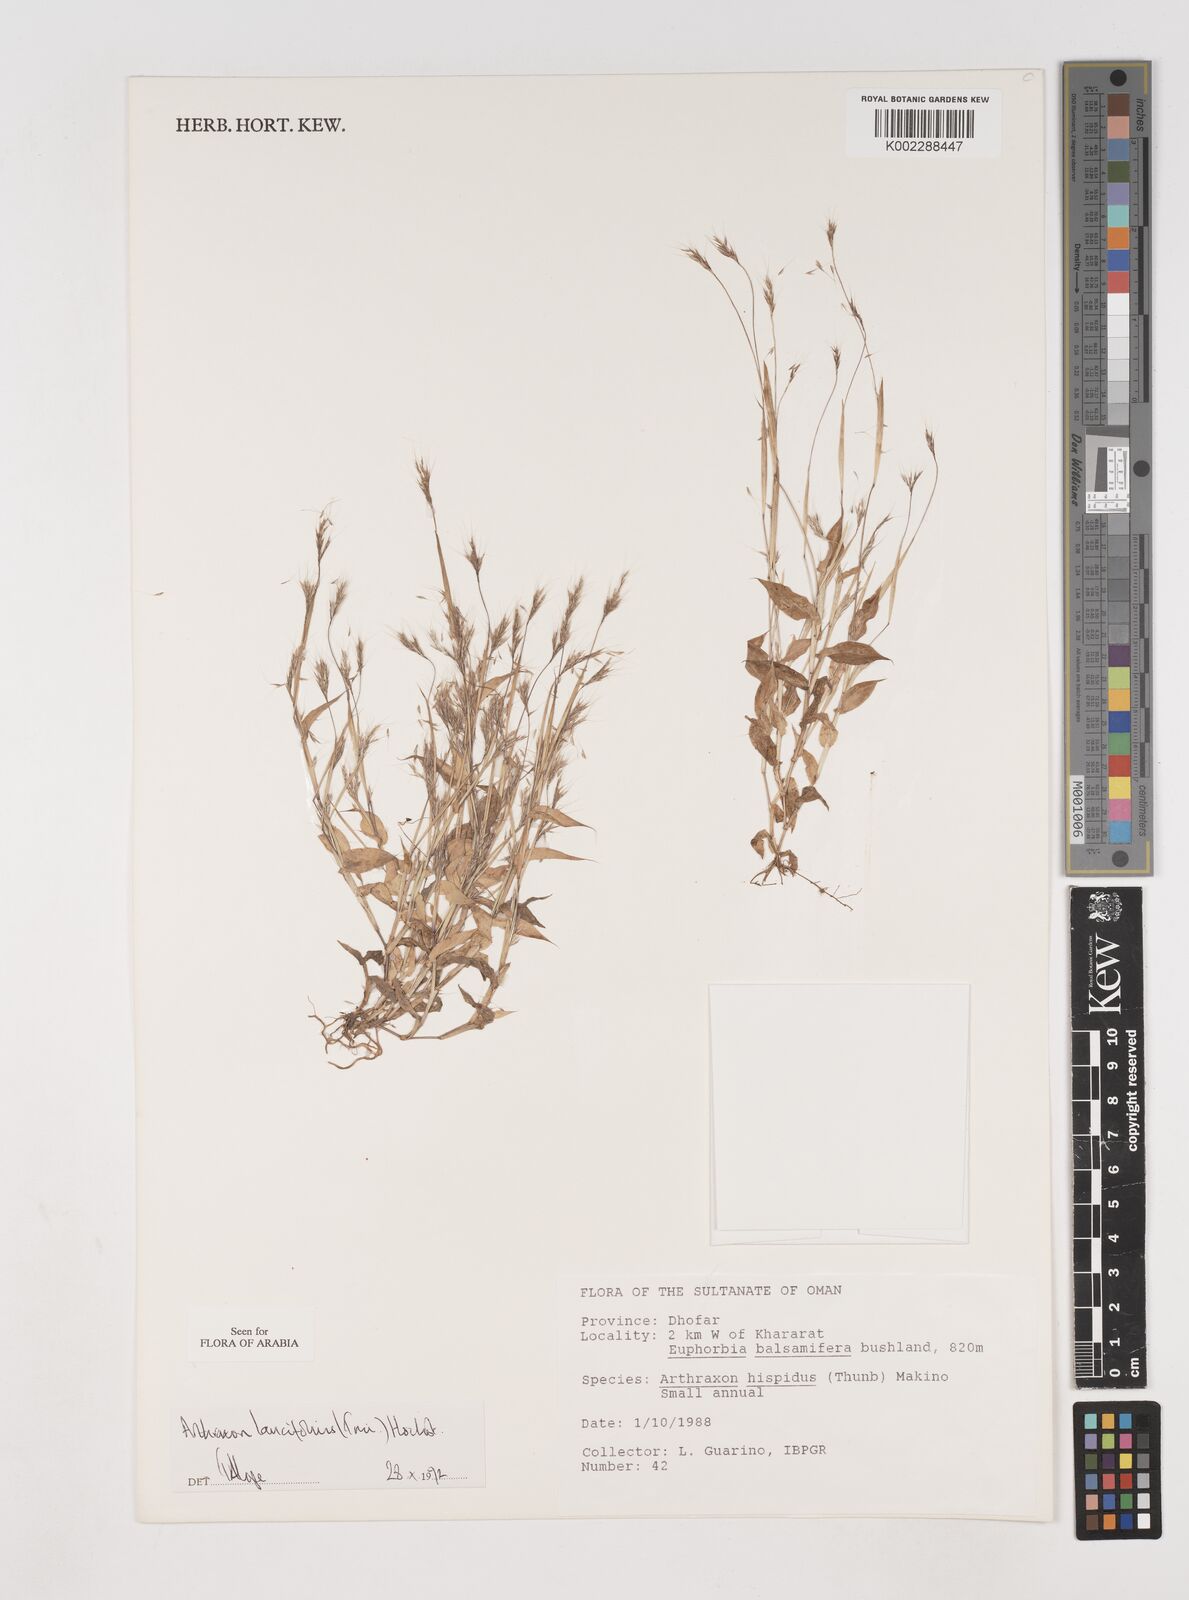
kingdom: Plantae
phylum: Tracheophyta
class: Liliopsida
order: Poales
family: Poaceae
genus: Arthraxon
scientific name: Arthraxon lancifolius
